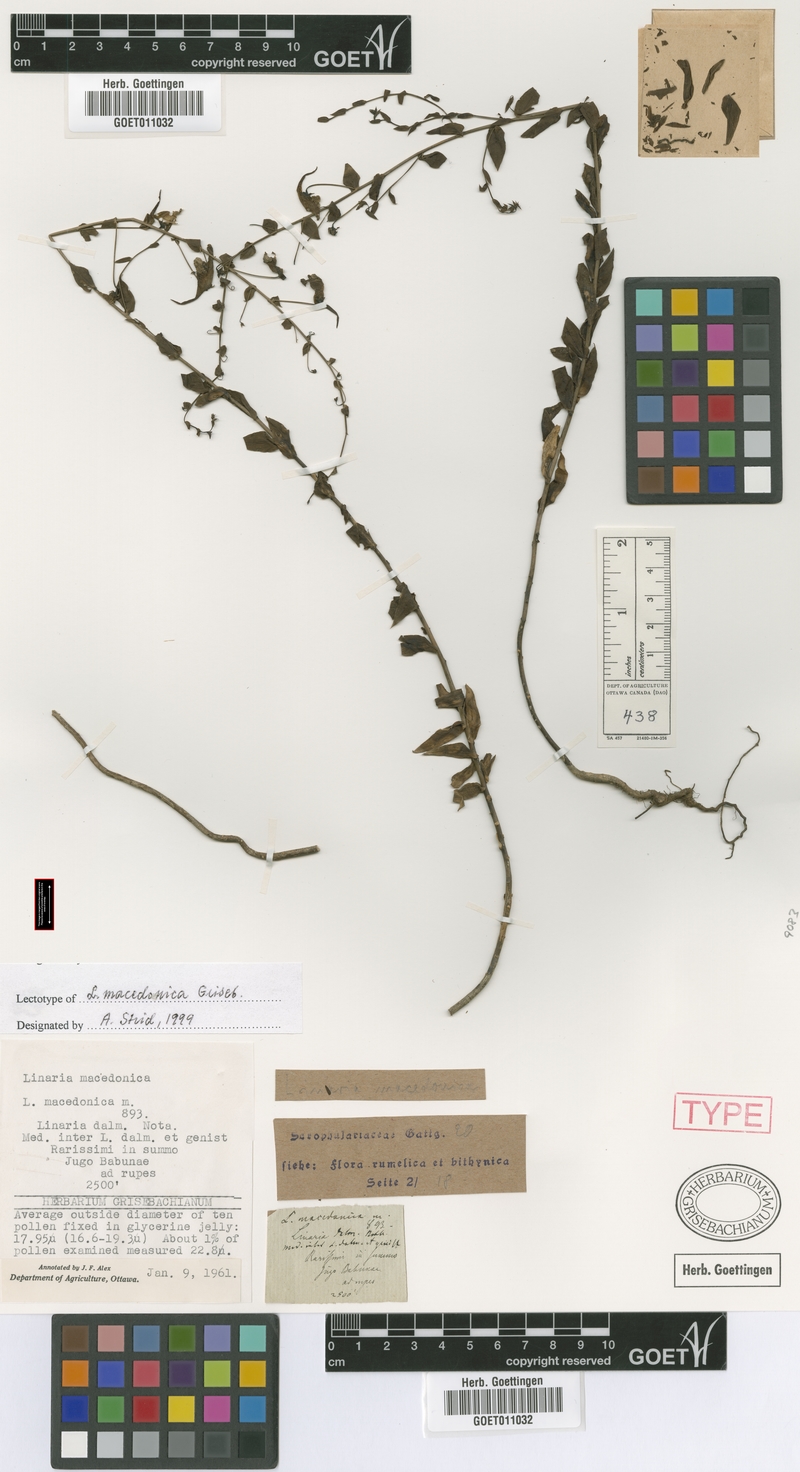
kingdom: Plantae
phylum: Tracheophyta
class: Magnoliopsida
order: Lamiales
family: Plantaginaceae
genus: Linaria
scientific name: Linaria dalmatica
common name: Dalmatian toadflax
